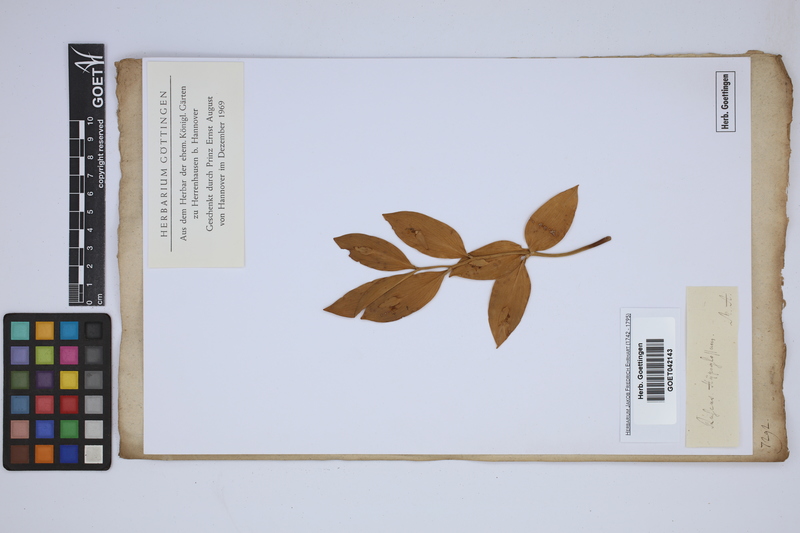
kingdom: Plantae
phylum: Tracheophyta
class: Liliopsida
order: Asparagales
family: Asparagaceae
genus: Ruscus
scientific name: Ruscus hypoglossum
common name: Spineless butcher's-broom
